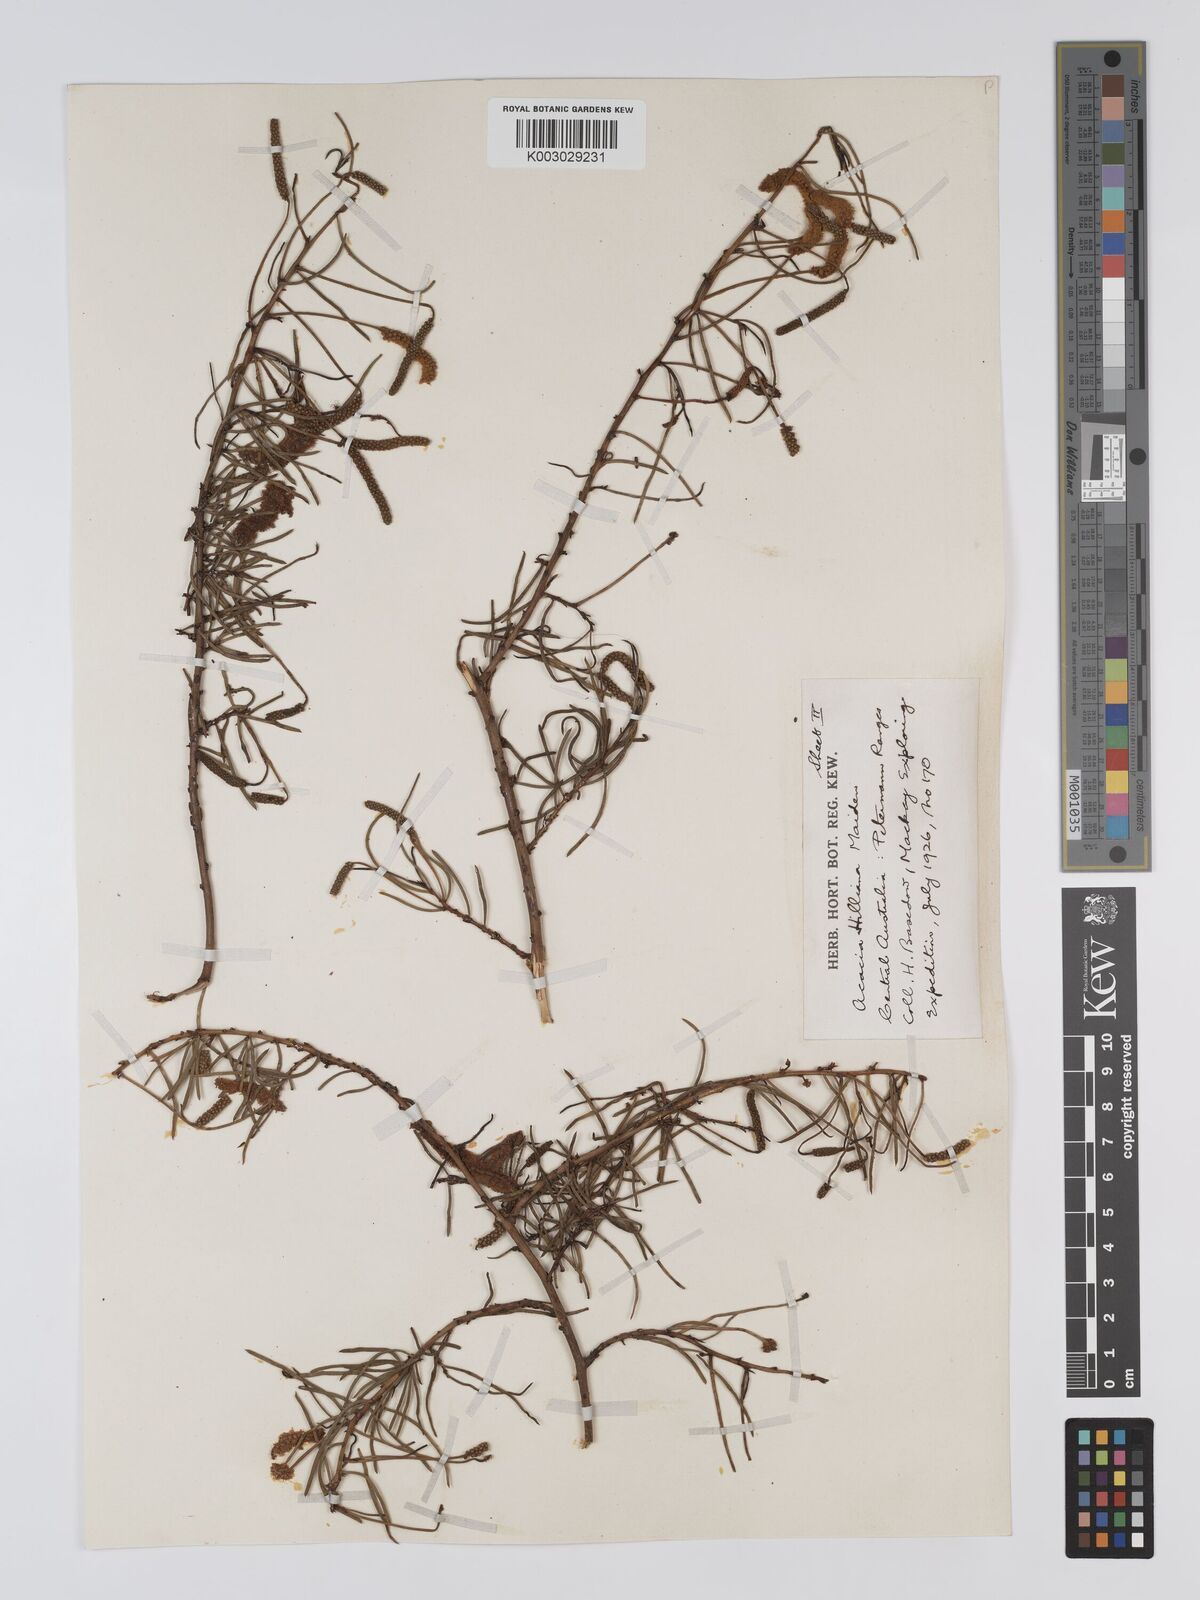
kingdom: Plantae
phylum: Tracheophyta
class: Magnoliopsida
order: Fabales
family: Fabaceae
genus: Acacia
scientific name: Acacia hilliana
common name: Hill's tabletop wattle
